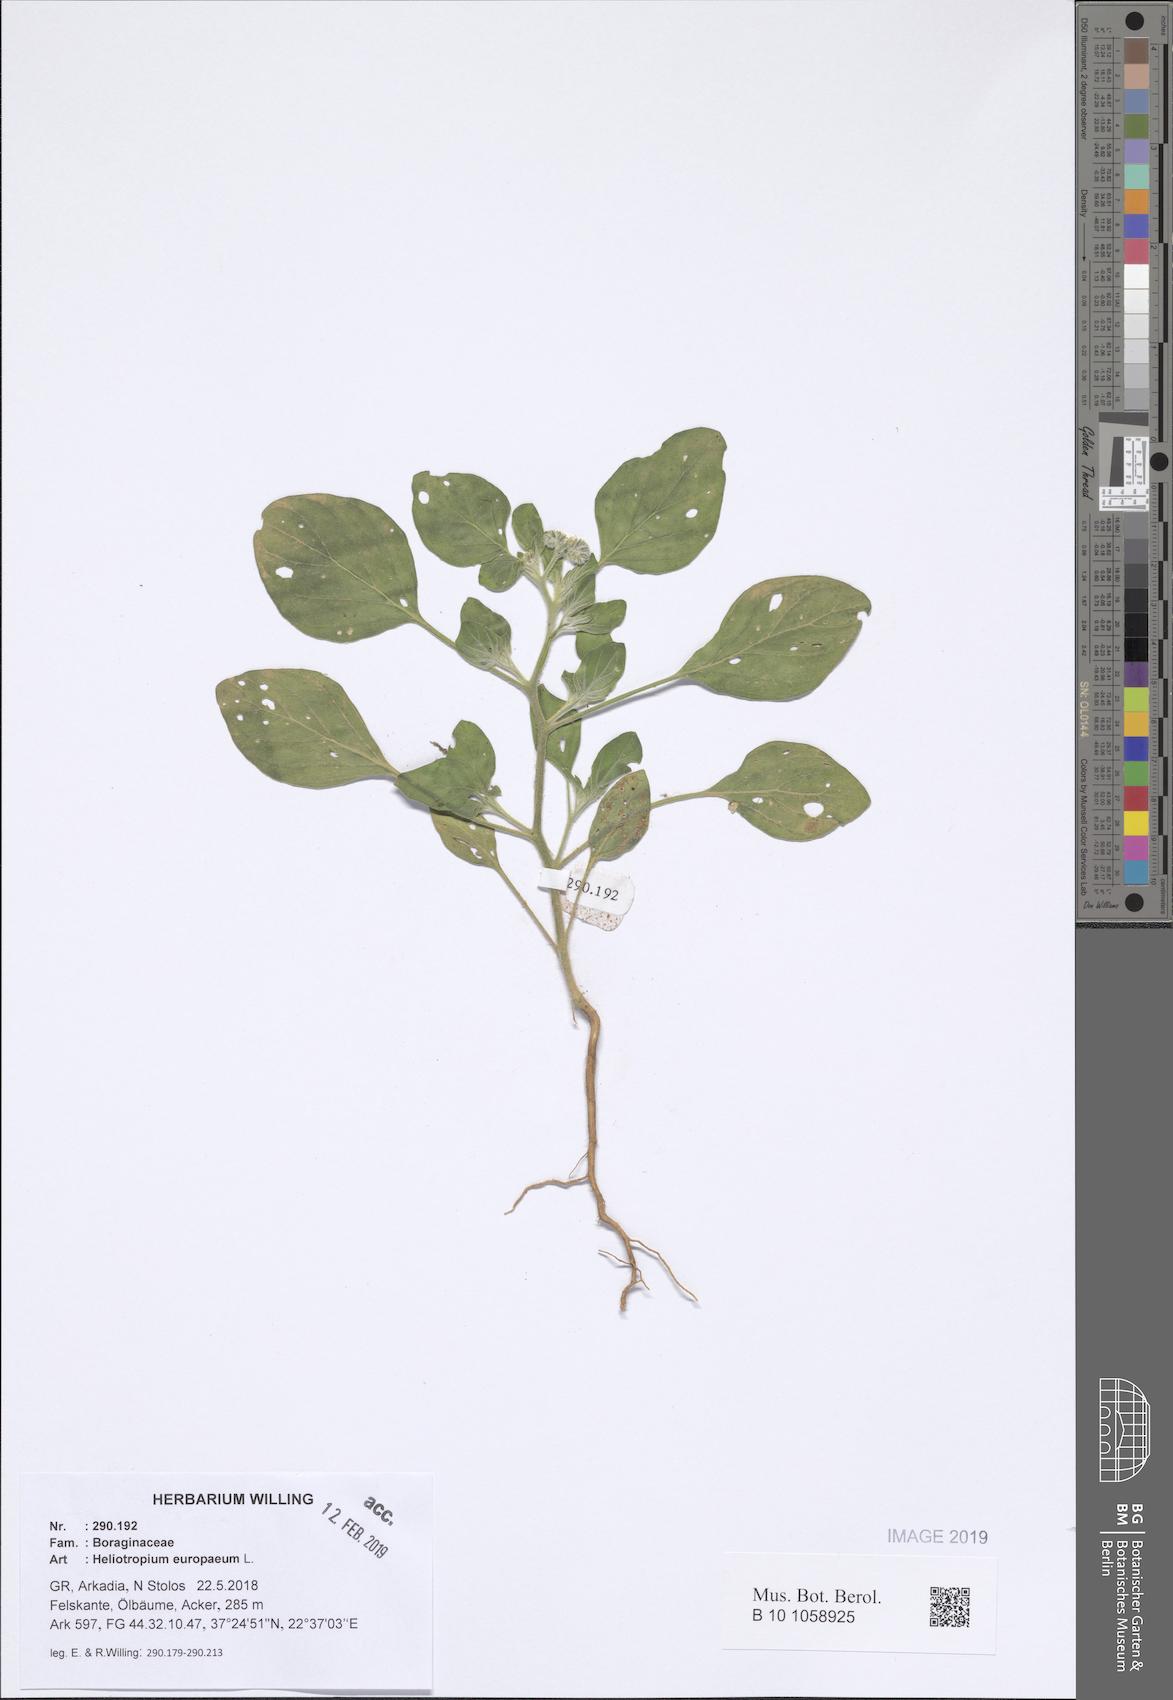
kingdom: Plantae
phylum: Tracheophyta
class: Magnoliopsida
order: Boraginales
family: Heliotropiaceae
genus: Heliotropium
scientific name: Heliotropium europaeum
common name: European heliotrope
